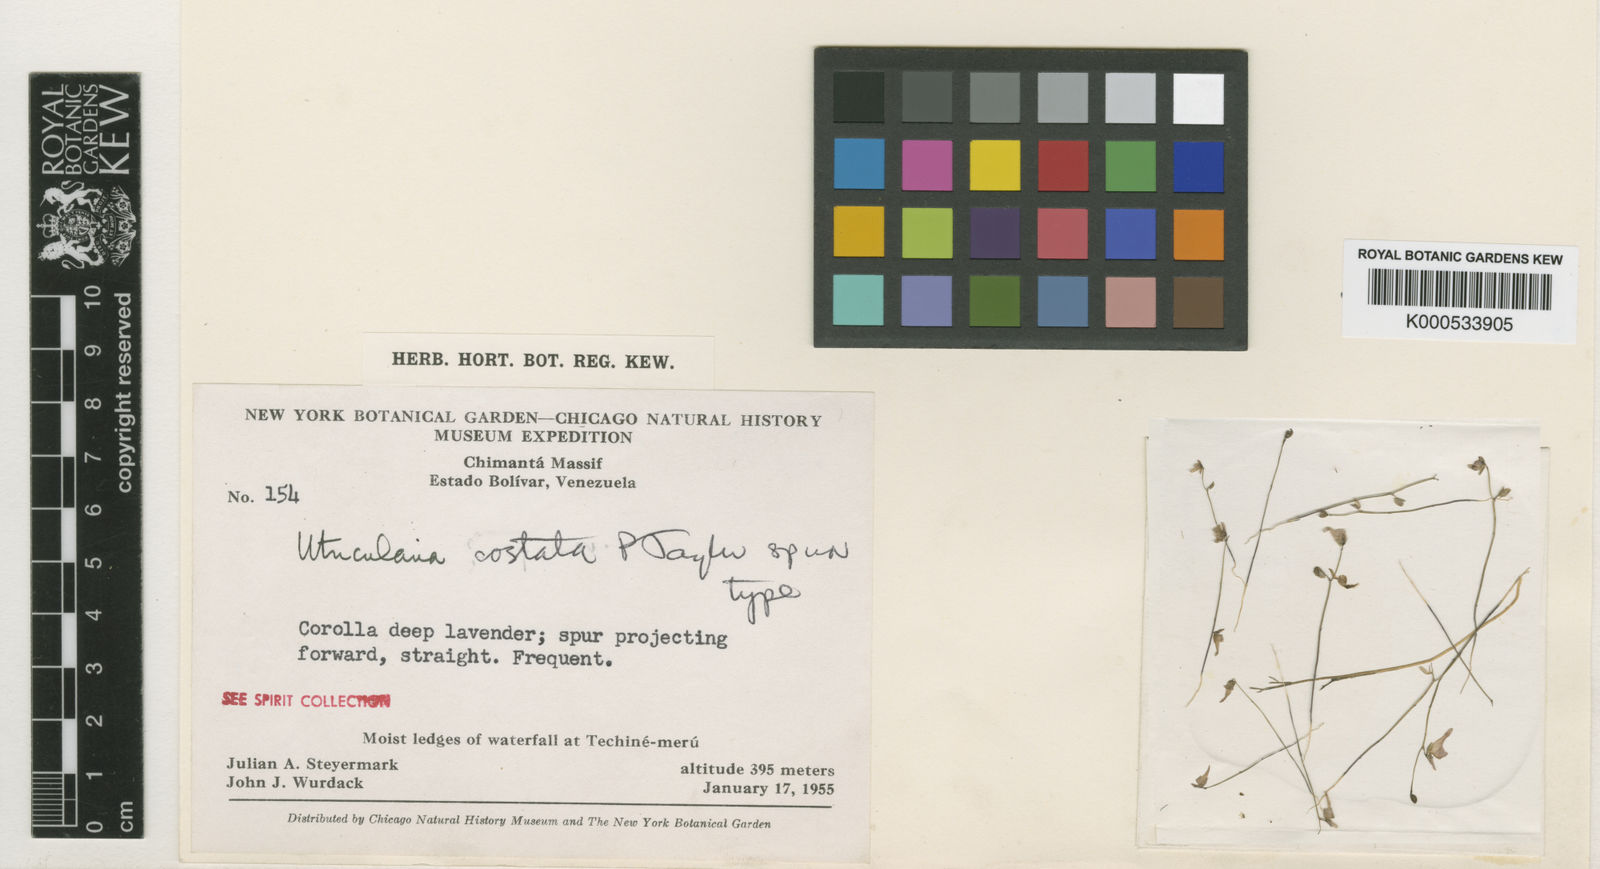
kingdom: Plantae
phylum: Tracheophyta
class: Magnoliopsida
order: Lamiales
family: Lentibulariaceae
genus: Utricularia
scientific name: Utricularia costata
